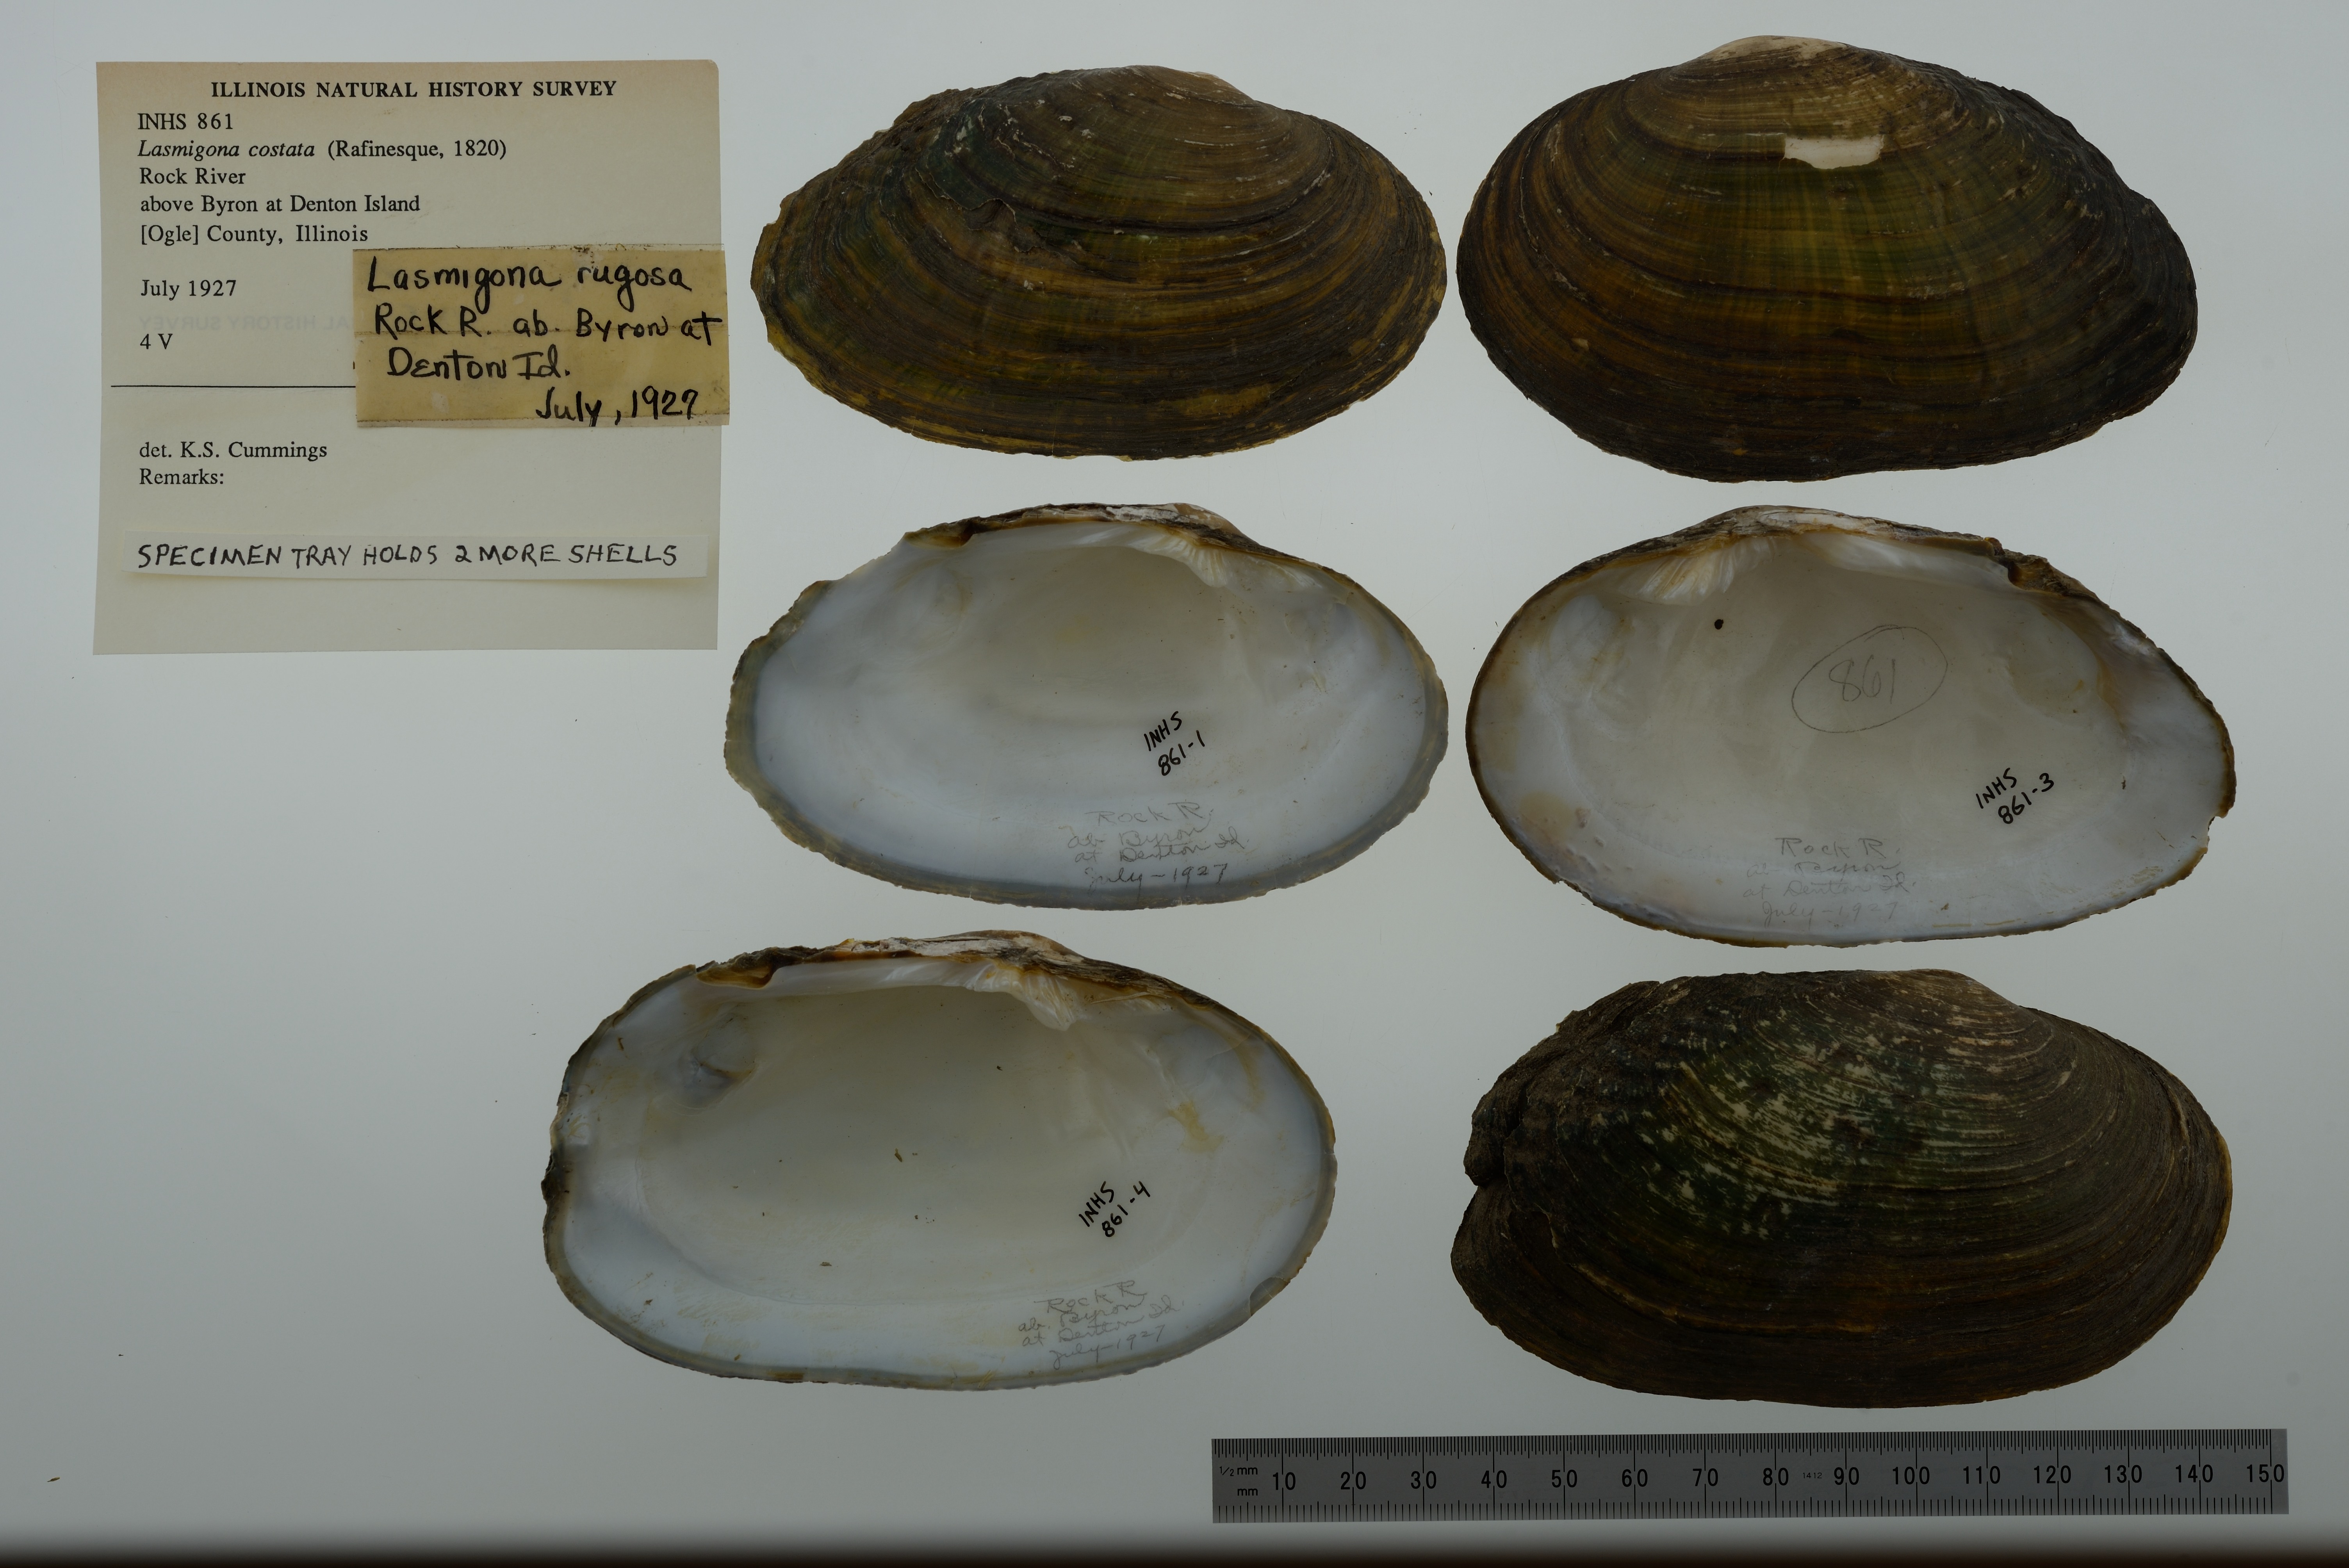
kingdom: Animalia
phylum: Mollusca
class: Bivalvia
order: Unionida
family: Unionidae
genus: Lasmigona
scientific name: Lasmigona costata
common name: Flutedshell
